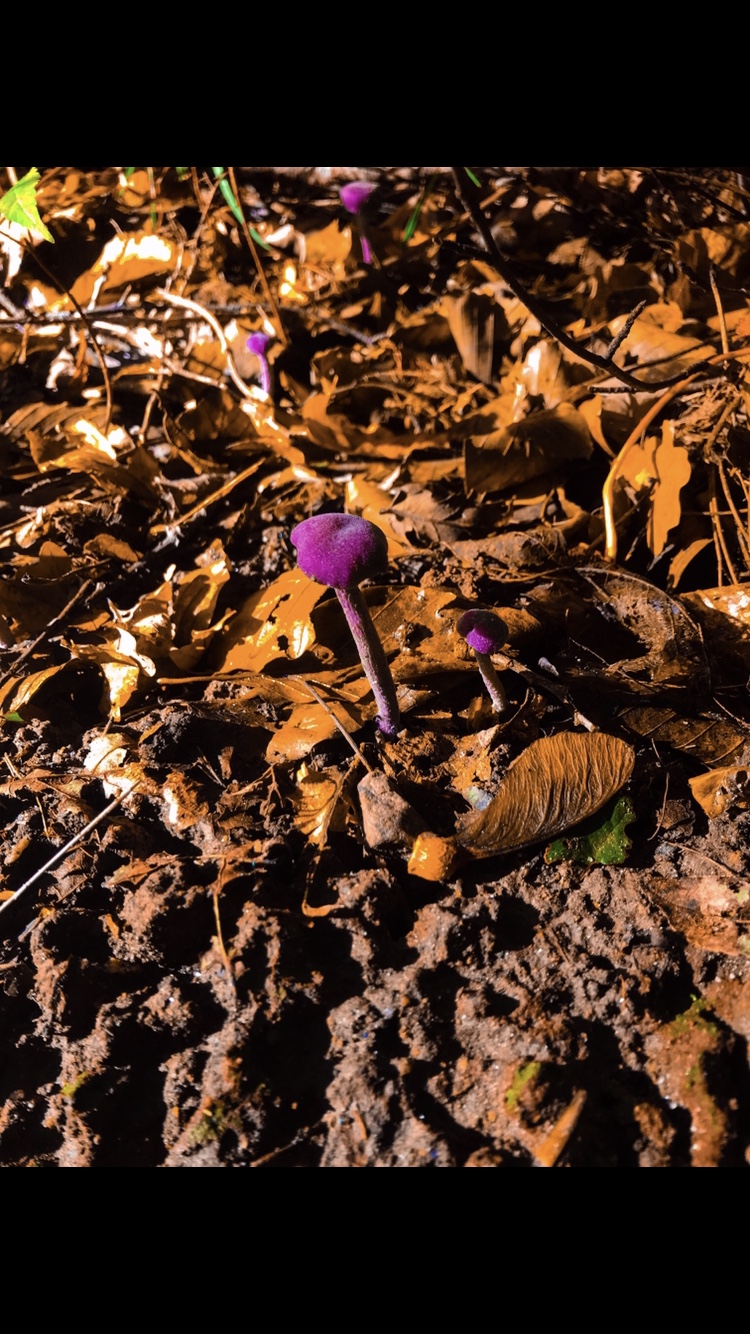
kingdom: Fungi
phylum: Basidiomycota
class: Agaricomycetes
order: Agaricales
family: Hydnangiaceae
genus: Laccaria
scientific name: Laccaria amethystina
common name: violet ametysthat
